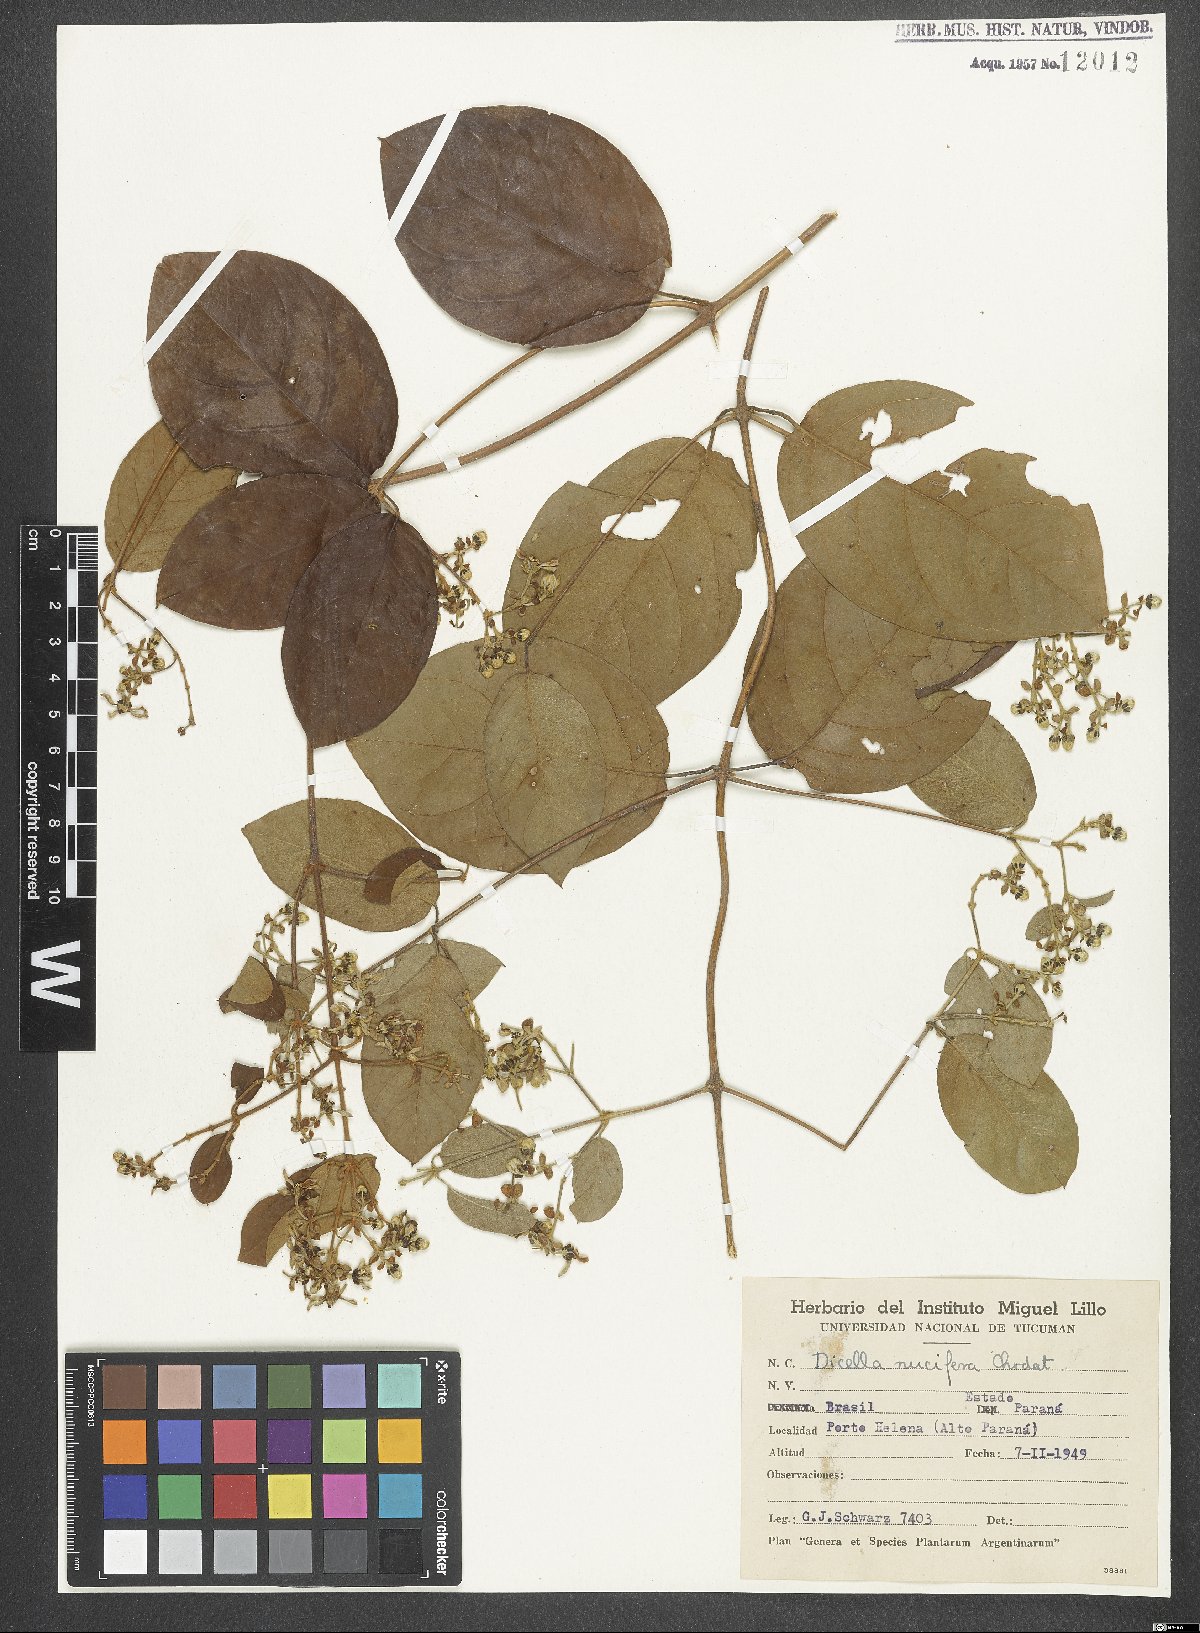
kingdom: Plantae
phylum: Tracheophyta
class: Magnoliopsida
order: Malpighiales
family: Malpighiaceae
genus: Dicella
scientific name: Dicella nucifera
